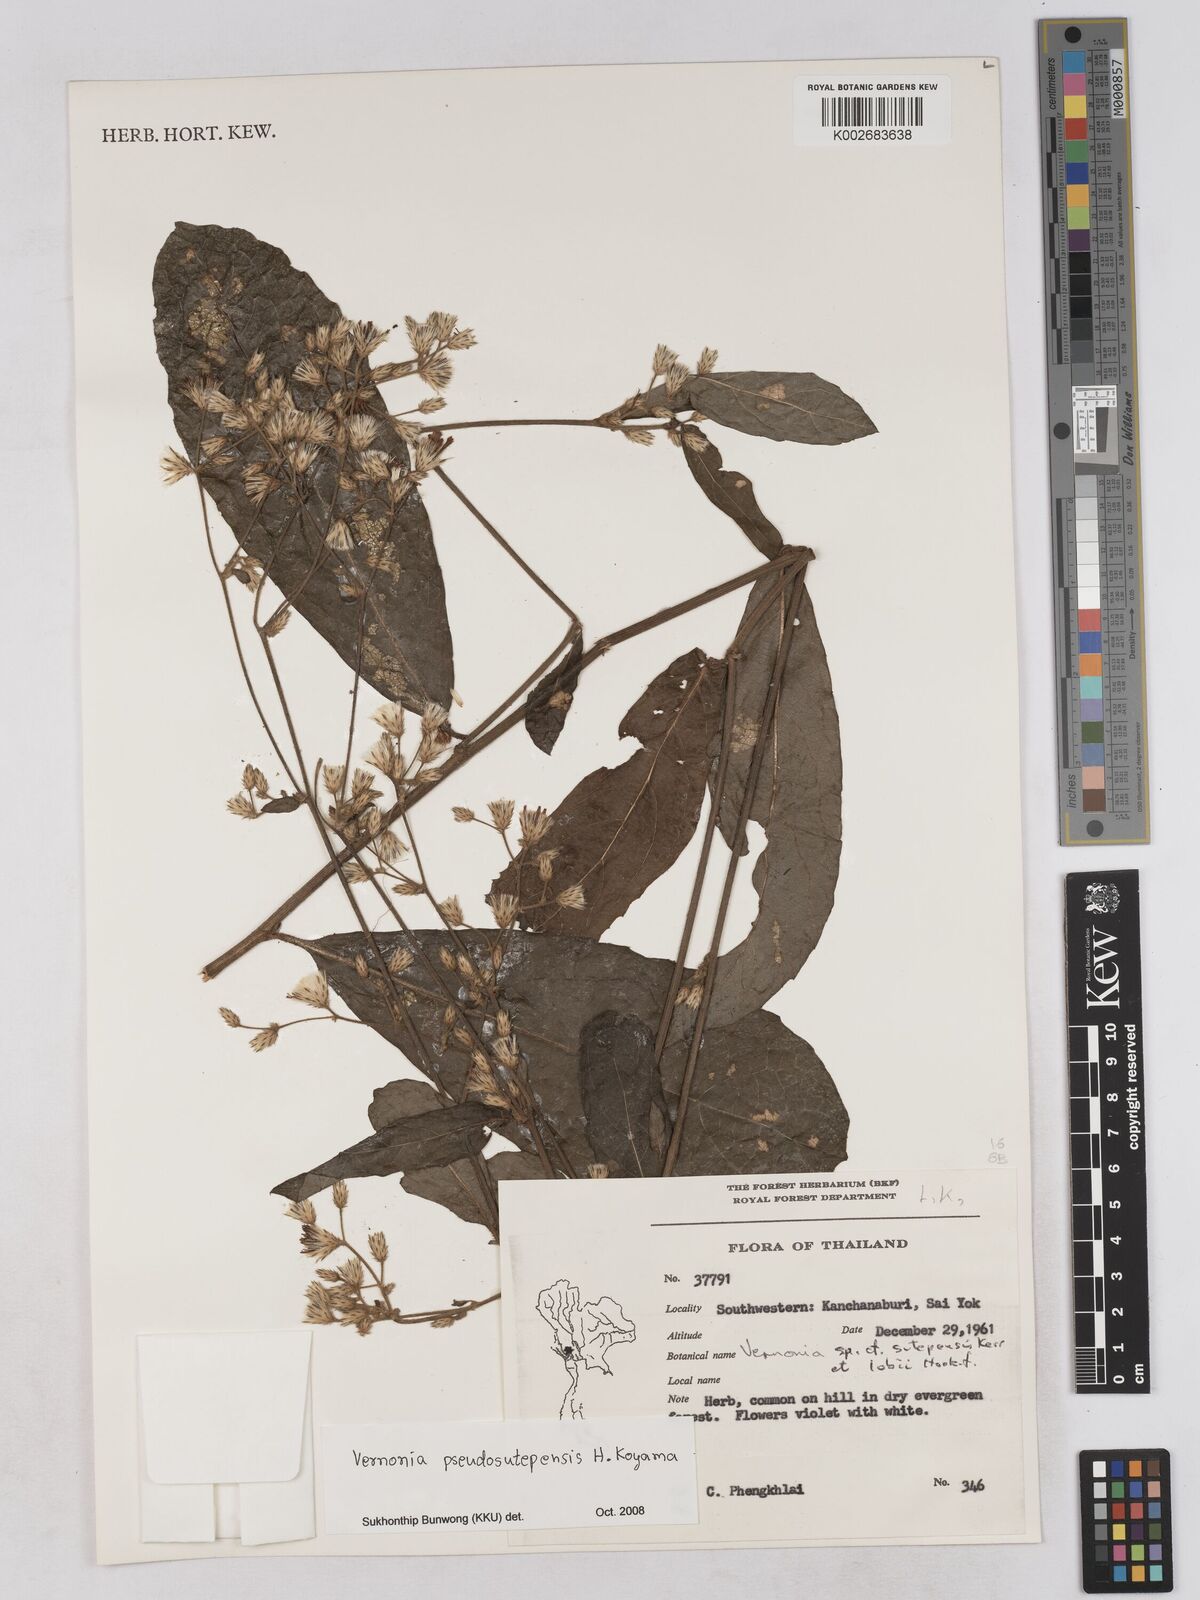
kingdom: Plantae
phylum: Tracheophyta
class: Magnoliopsida
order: Asterales
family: Asteraceae
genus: Acilepis
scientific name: Acilepis pseudosutepensis
